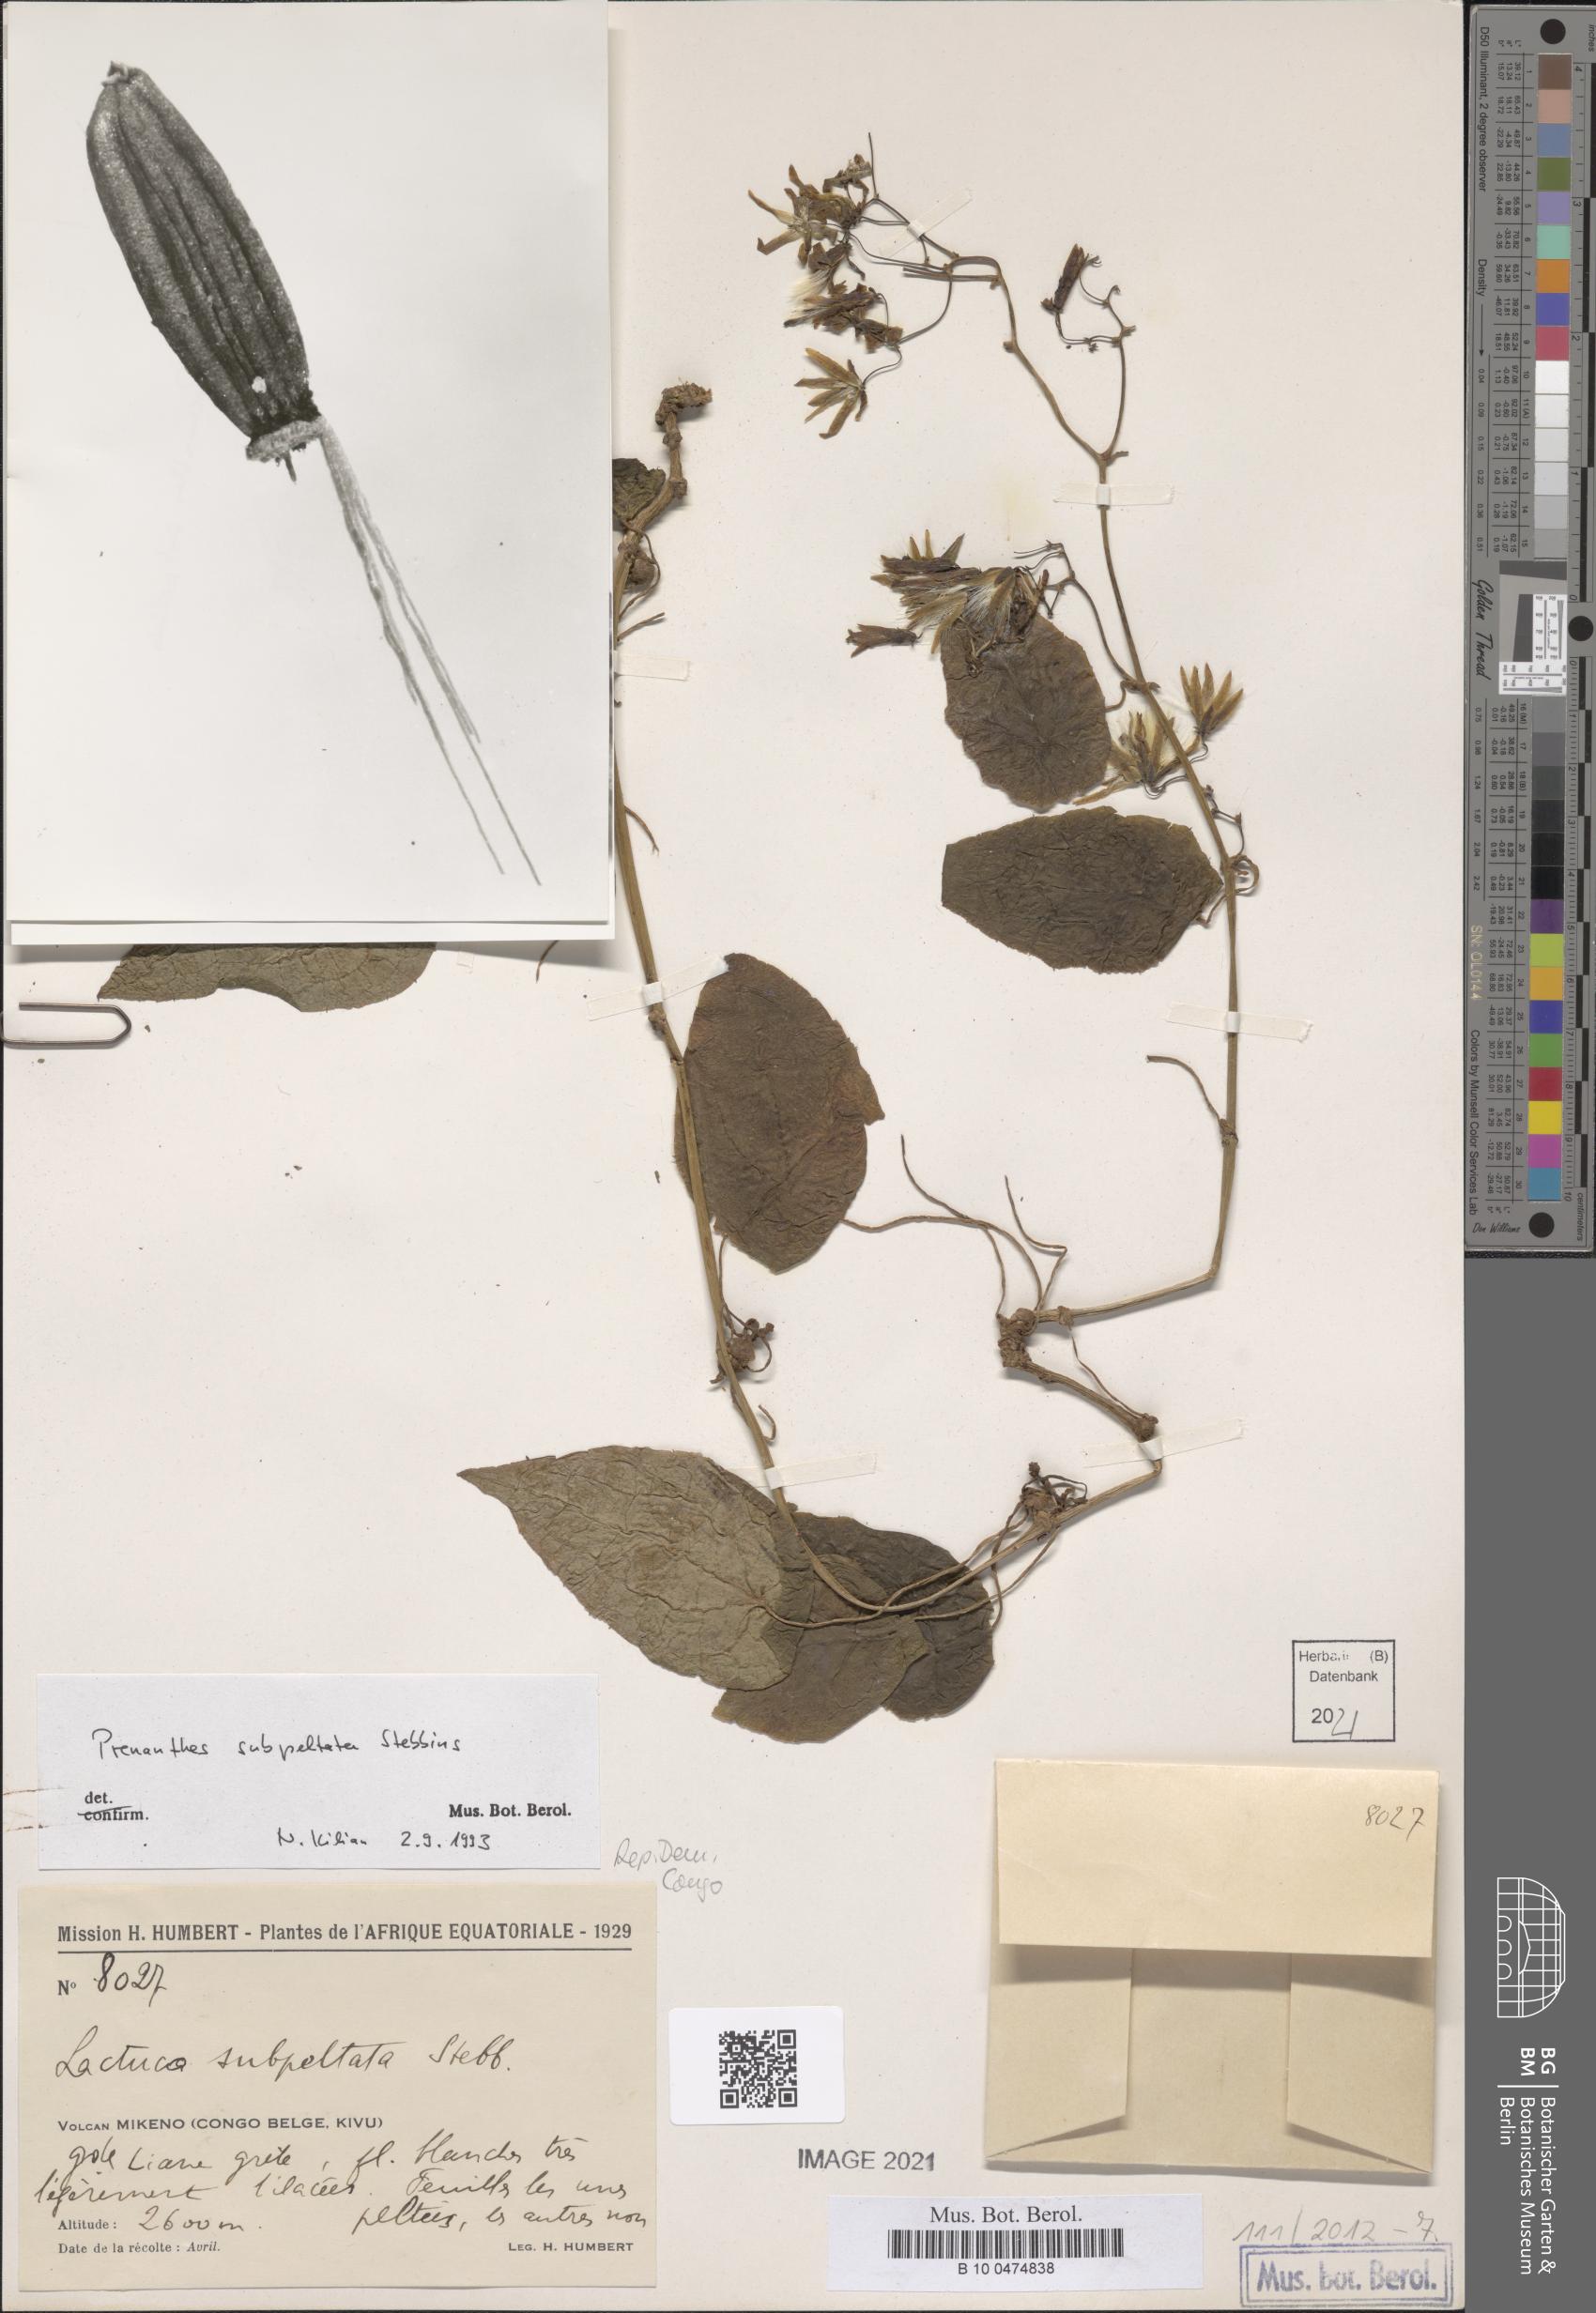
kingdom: Plantae
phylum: Tracheophyta
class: Magnoliopsida
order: Asterales
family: Asteraceae
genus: Prenanthes
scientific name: Prenanthes subpeltata
